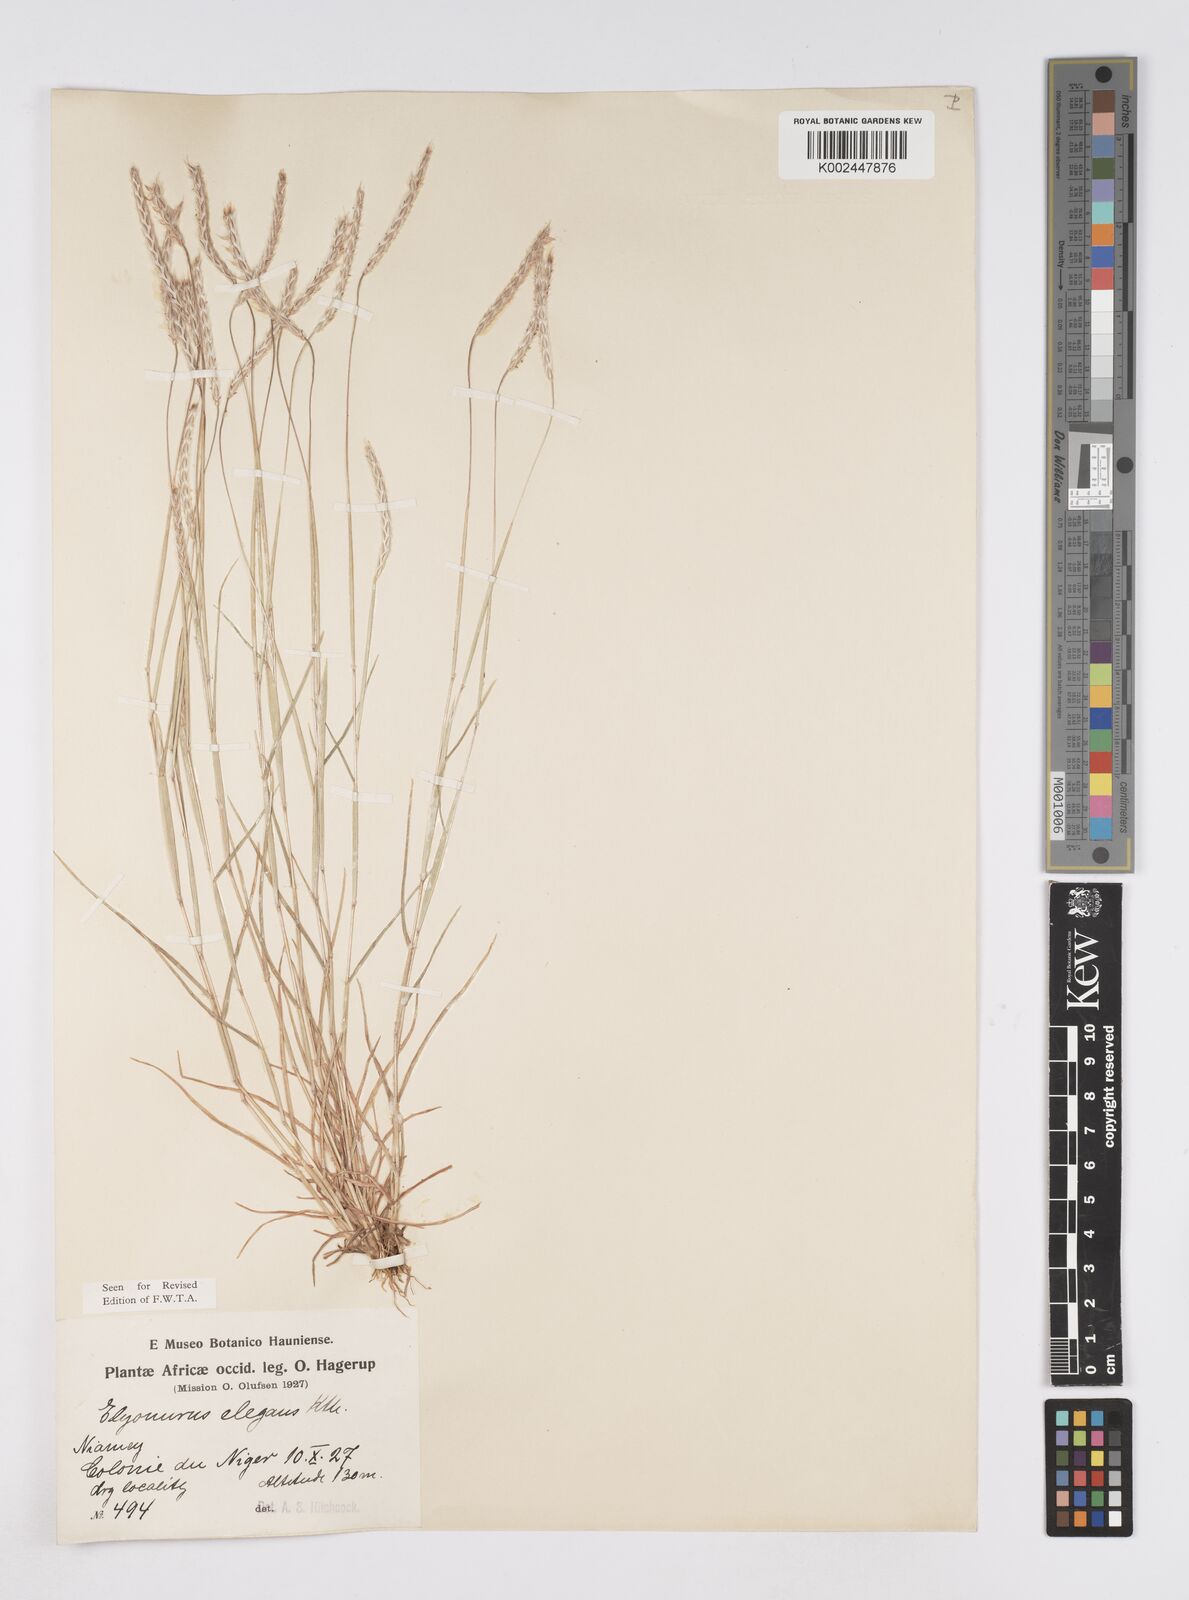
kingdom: Plantae
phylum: Tracheophyta
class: Liliopsida
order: Poales
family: Poaceae
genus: Elionurus
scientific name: Elionurus elegans
